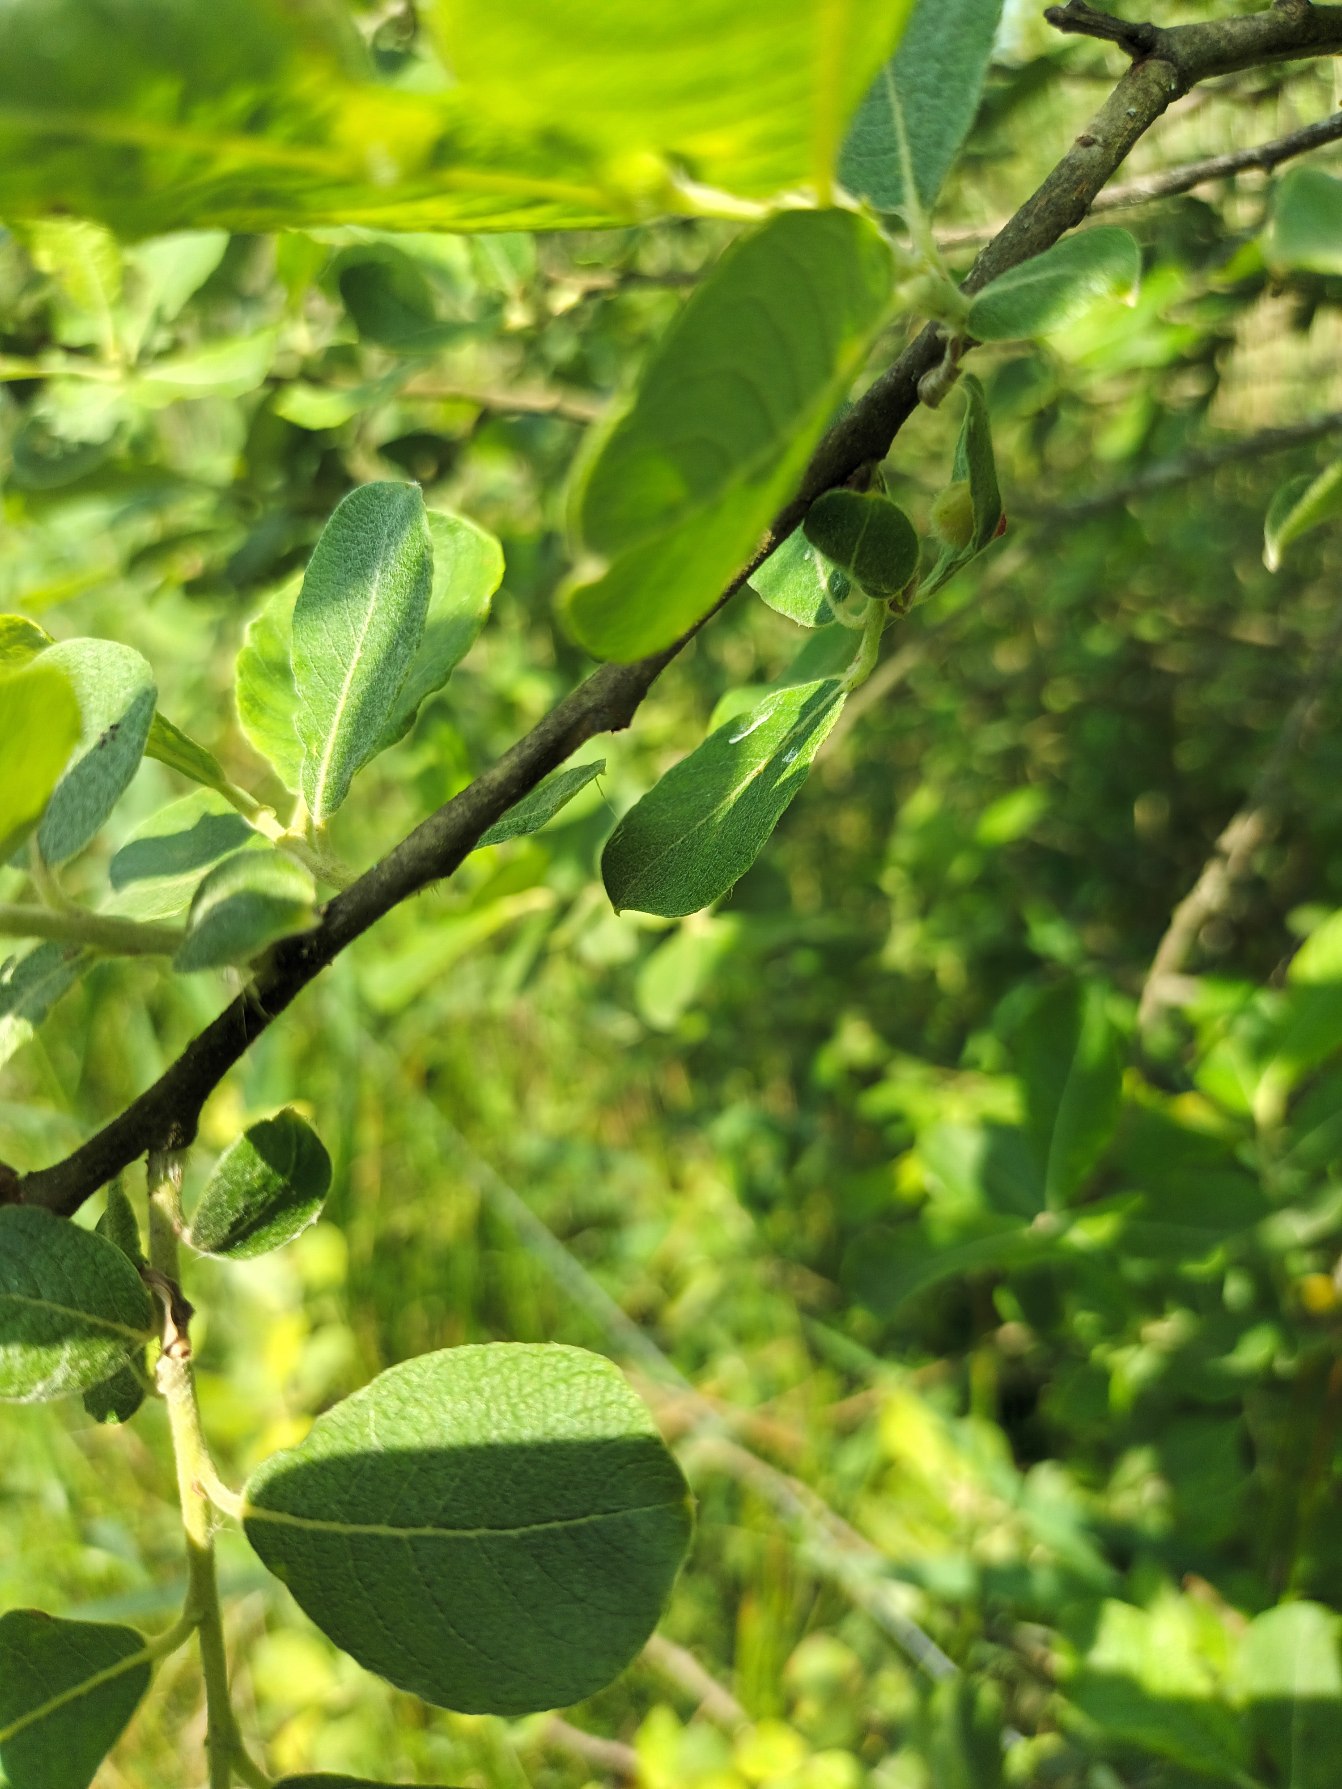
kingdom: Plantae
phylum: Tracheophyta
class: Magnoliopsida
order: Malpighiales
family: Salicaceae
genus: Salix
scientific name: Salix aurita
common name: Øret pil
